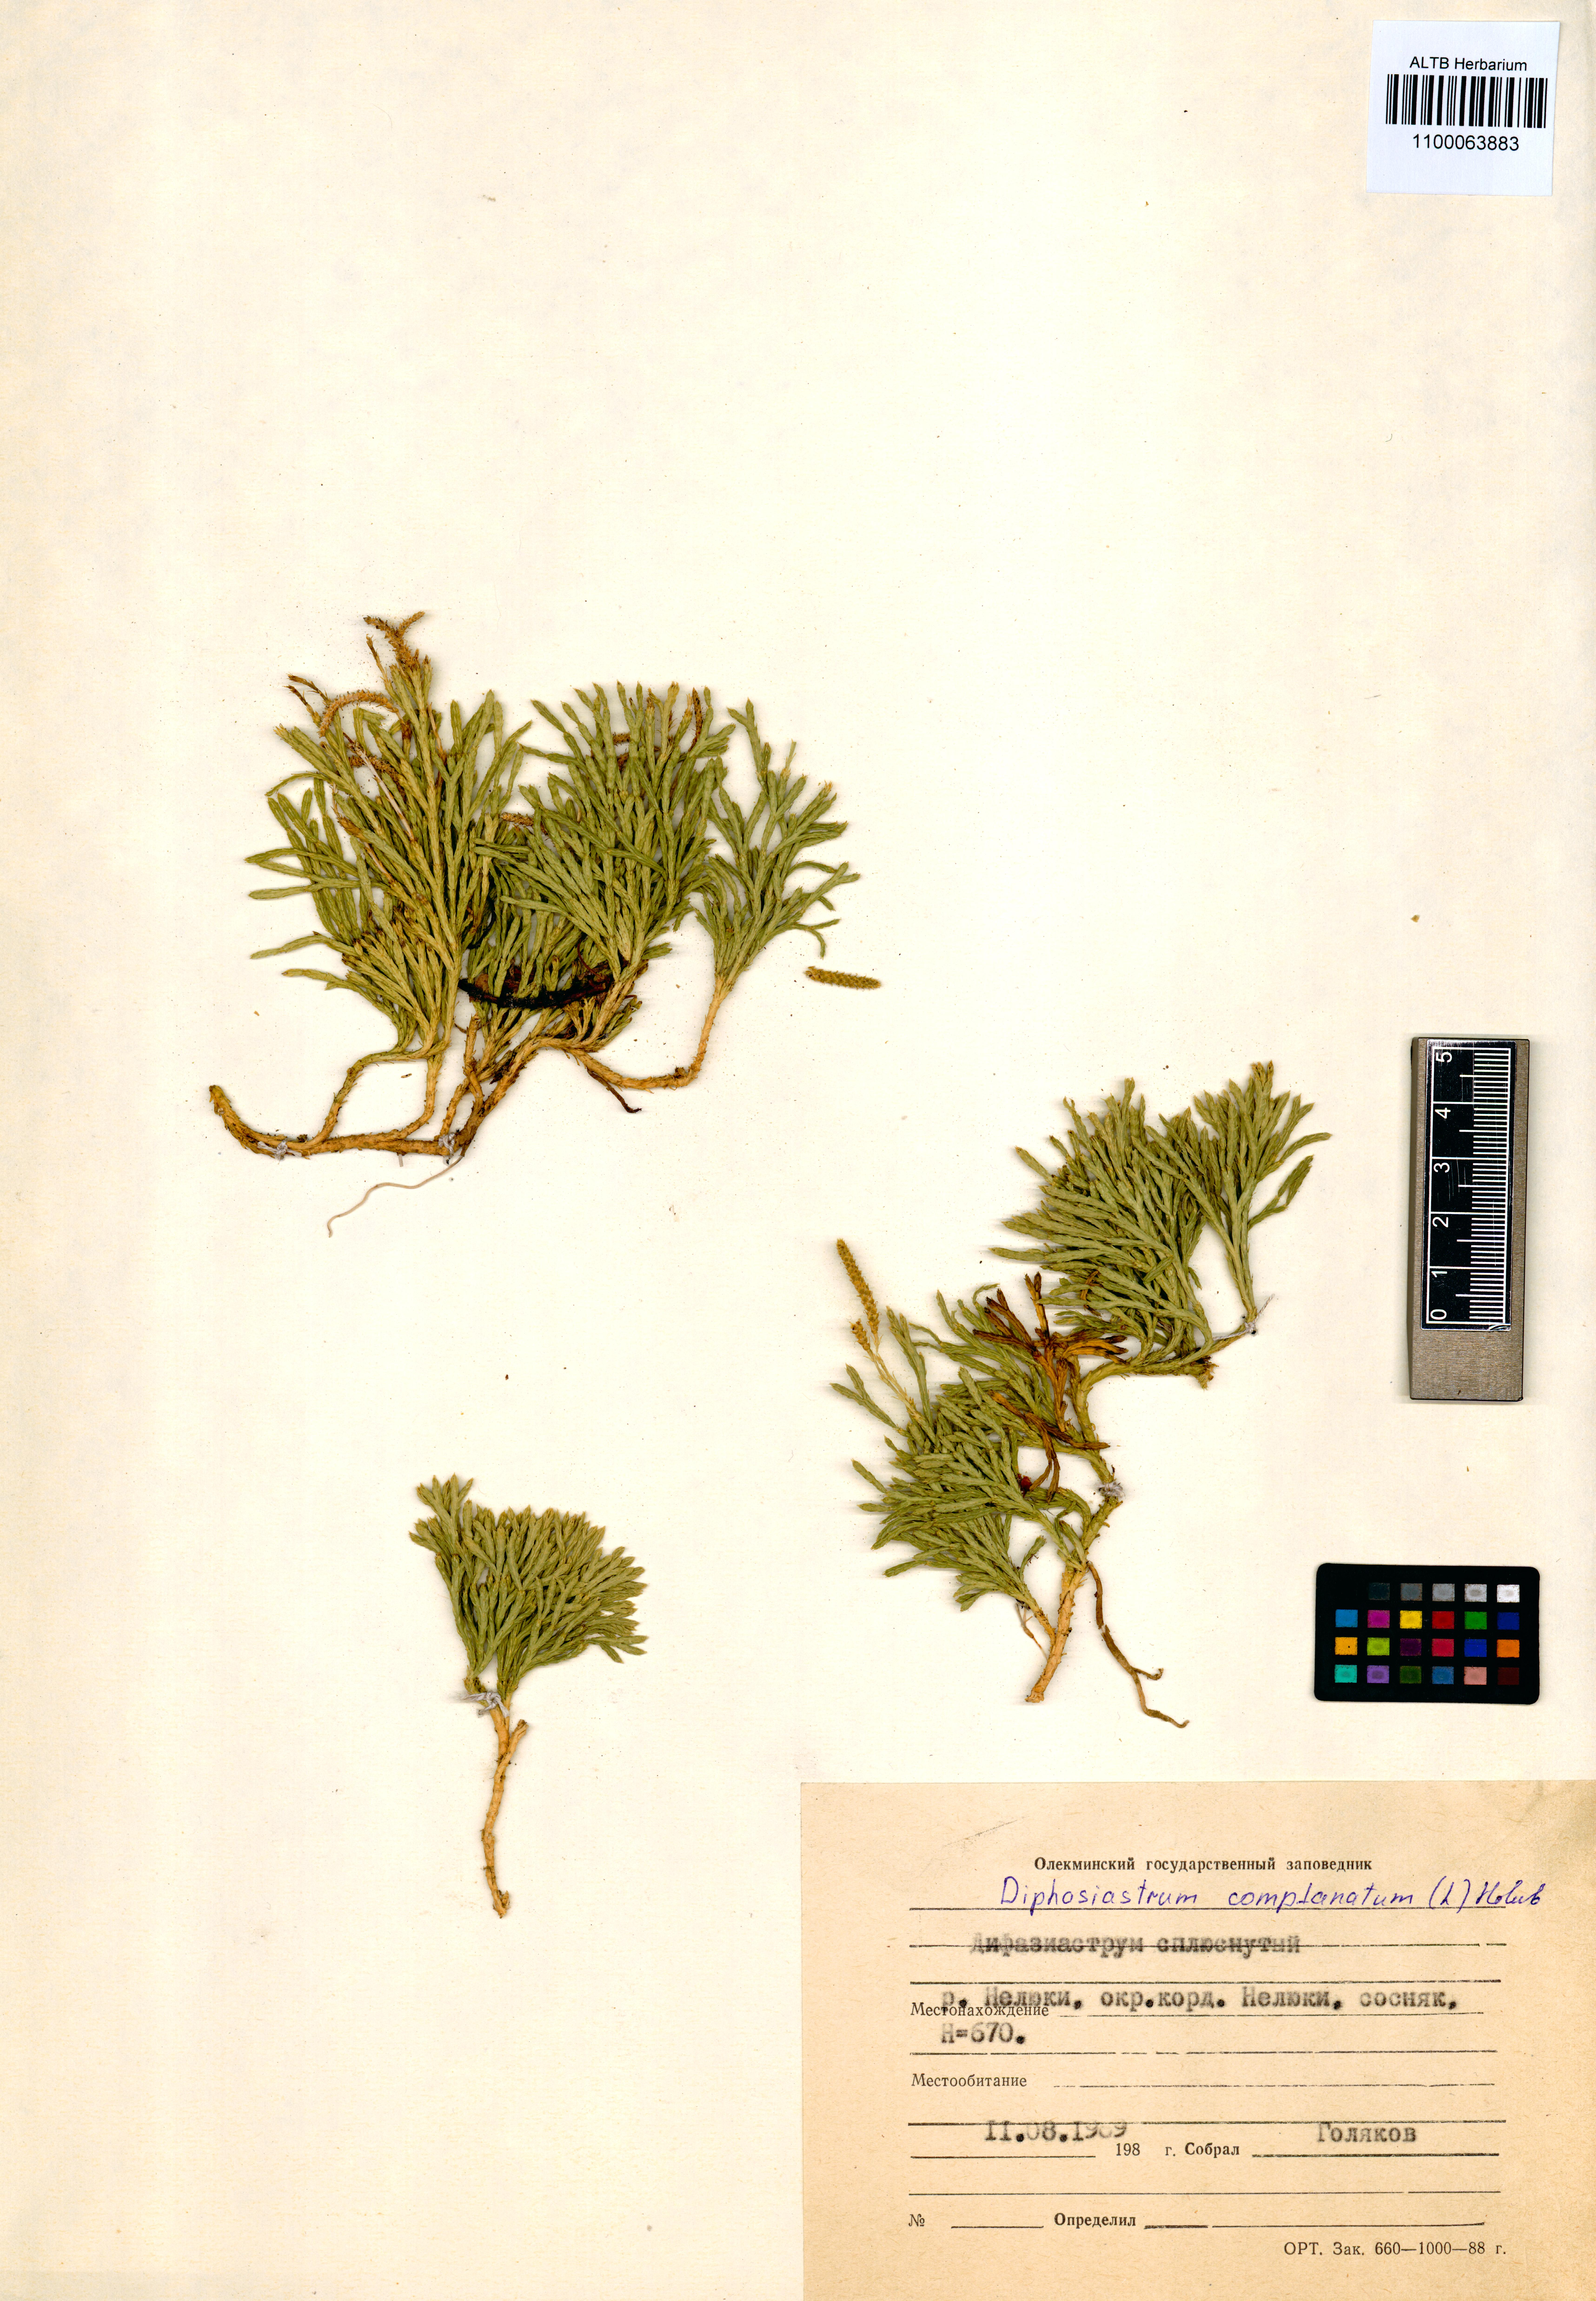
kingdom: Plantae
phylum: Tracheophyta
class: Lycopodiopsida
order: Lycopodiales
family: Lycopodiaceae
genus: Diphasiastrum
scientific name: Diphasiastrum complanatum
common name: Northern running-pine
